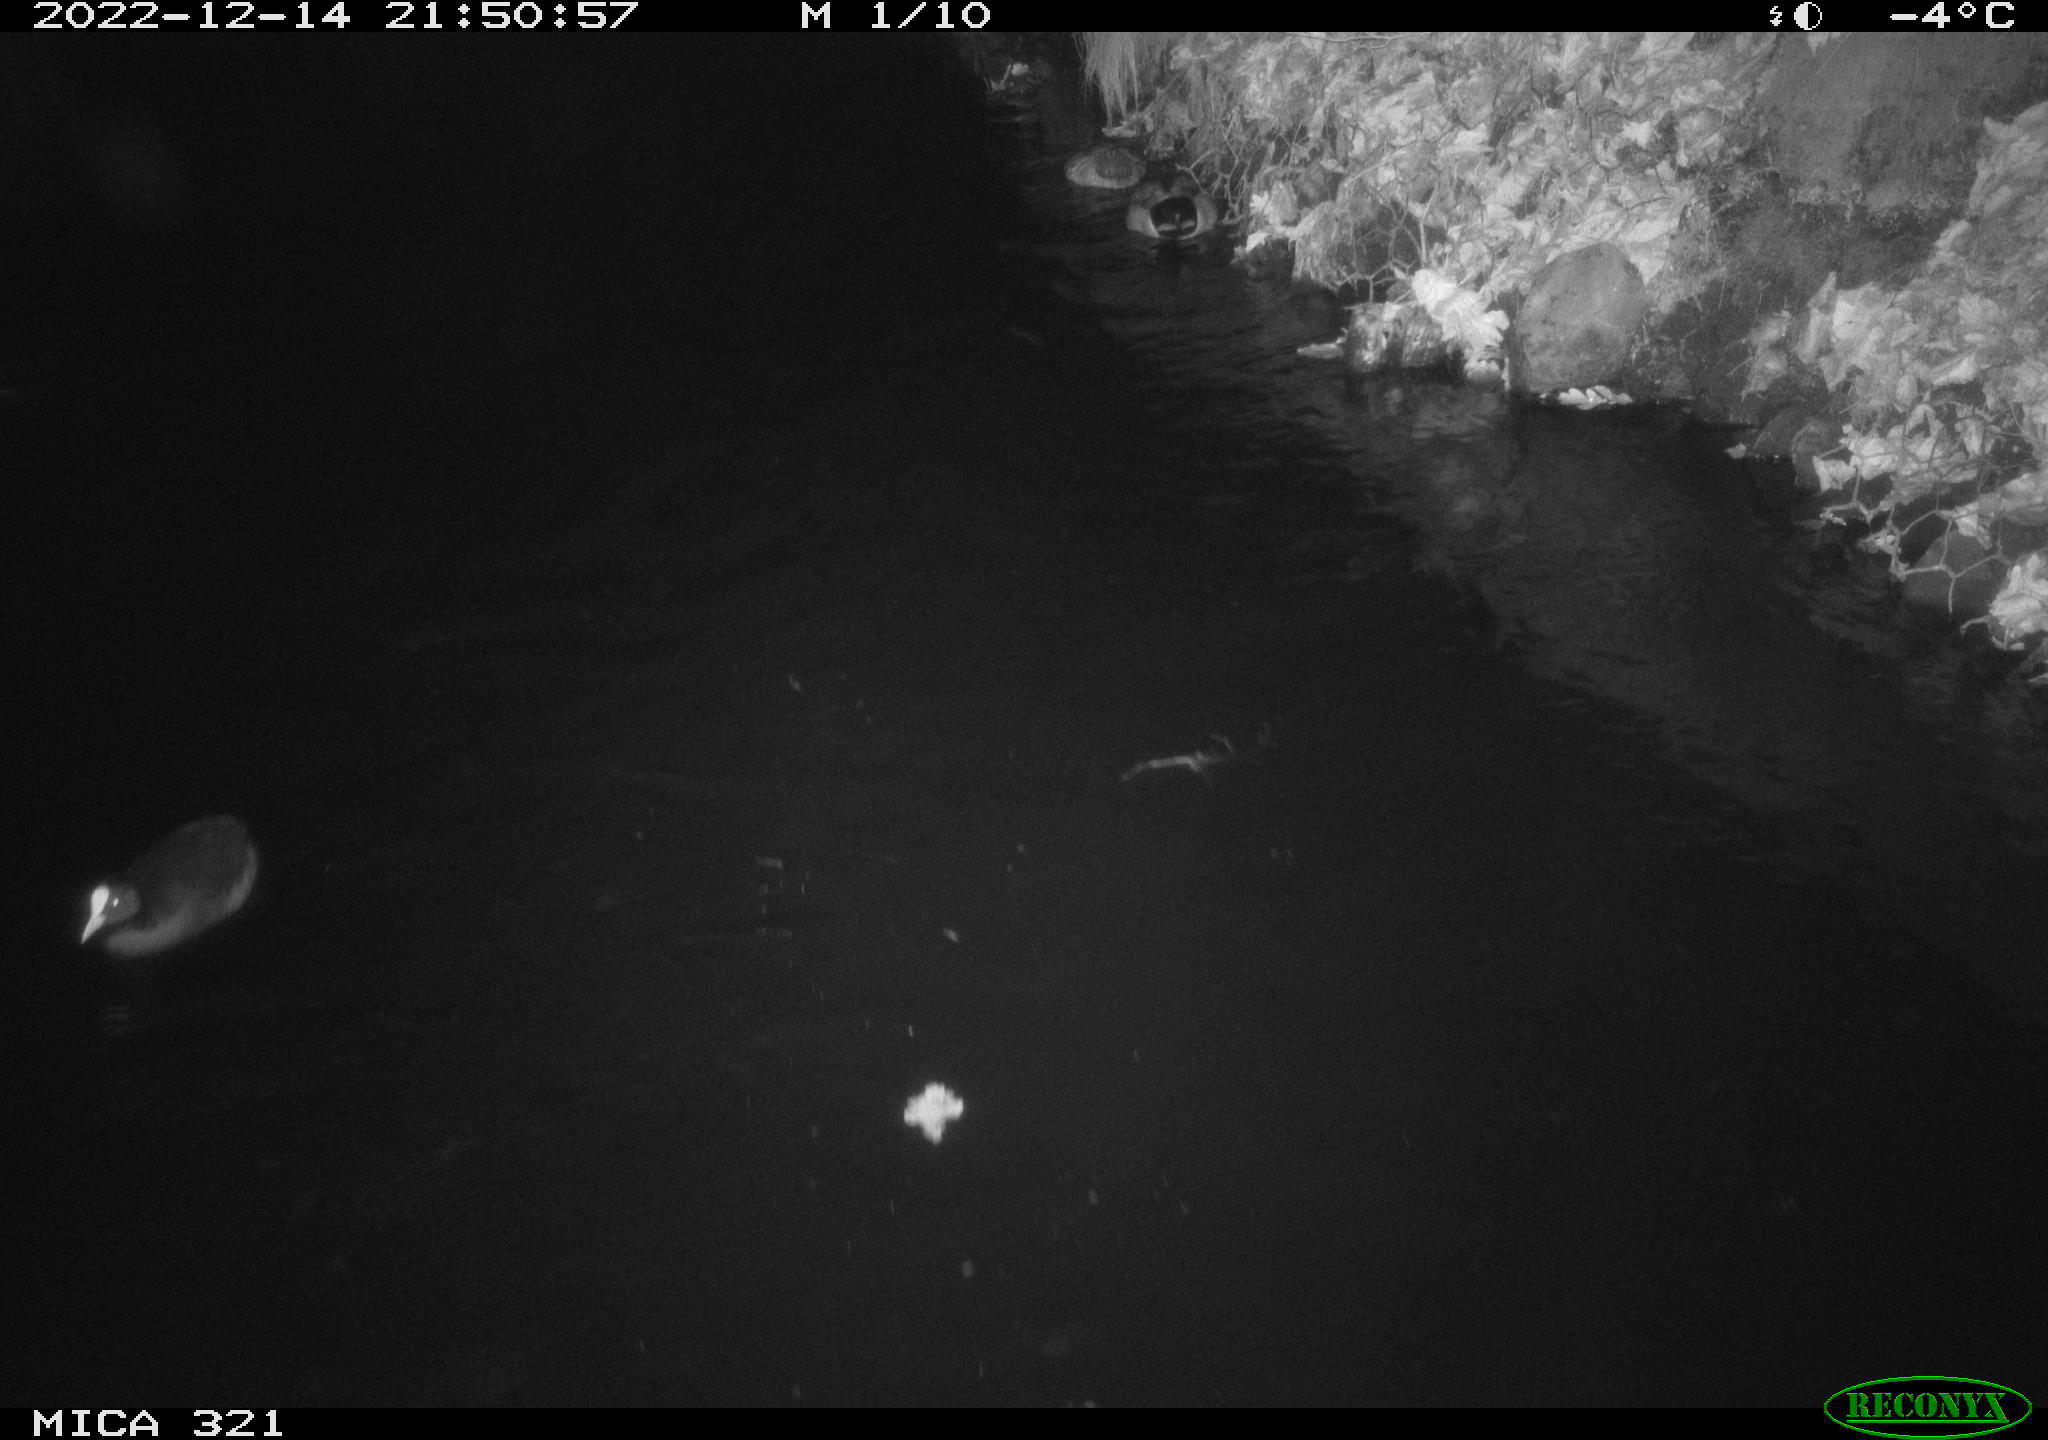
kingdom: Animalia
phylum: Chordata
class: Aves
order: Anseriformes
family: Anatidae
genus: Anas
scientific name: Anas
